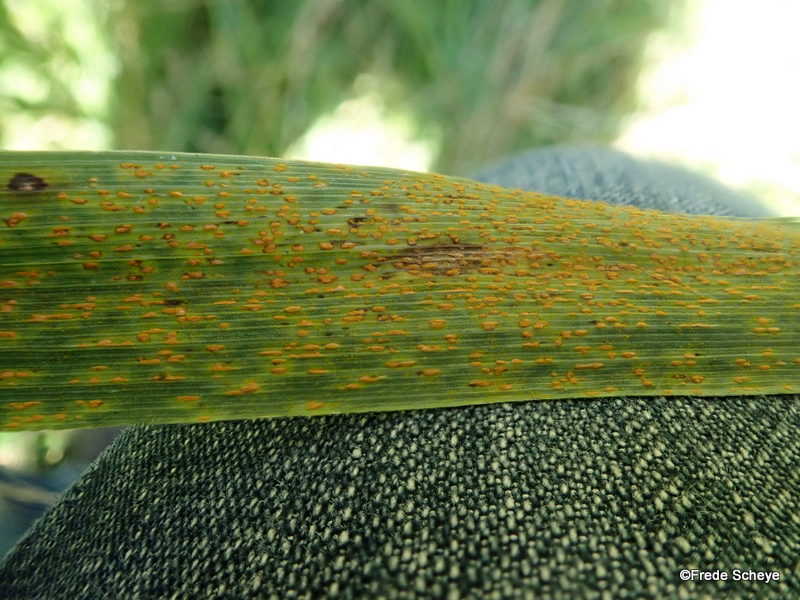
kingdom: Fungi
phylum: Basidiomycota
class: Pucciniomycetes
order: Pucciniales
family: Pucciniaceae
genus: Puccinia
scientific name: Puccinia coronata
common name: Crown rust
